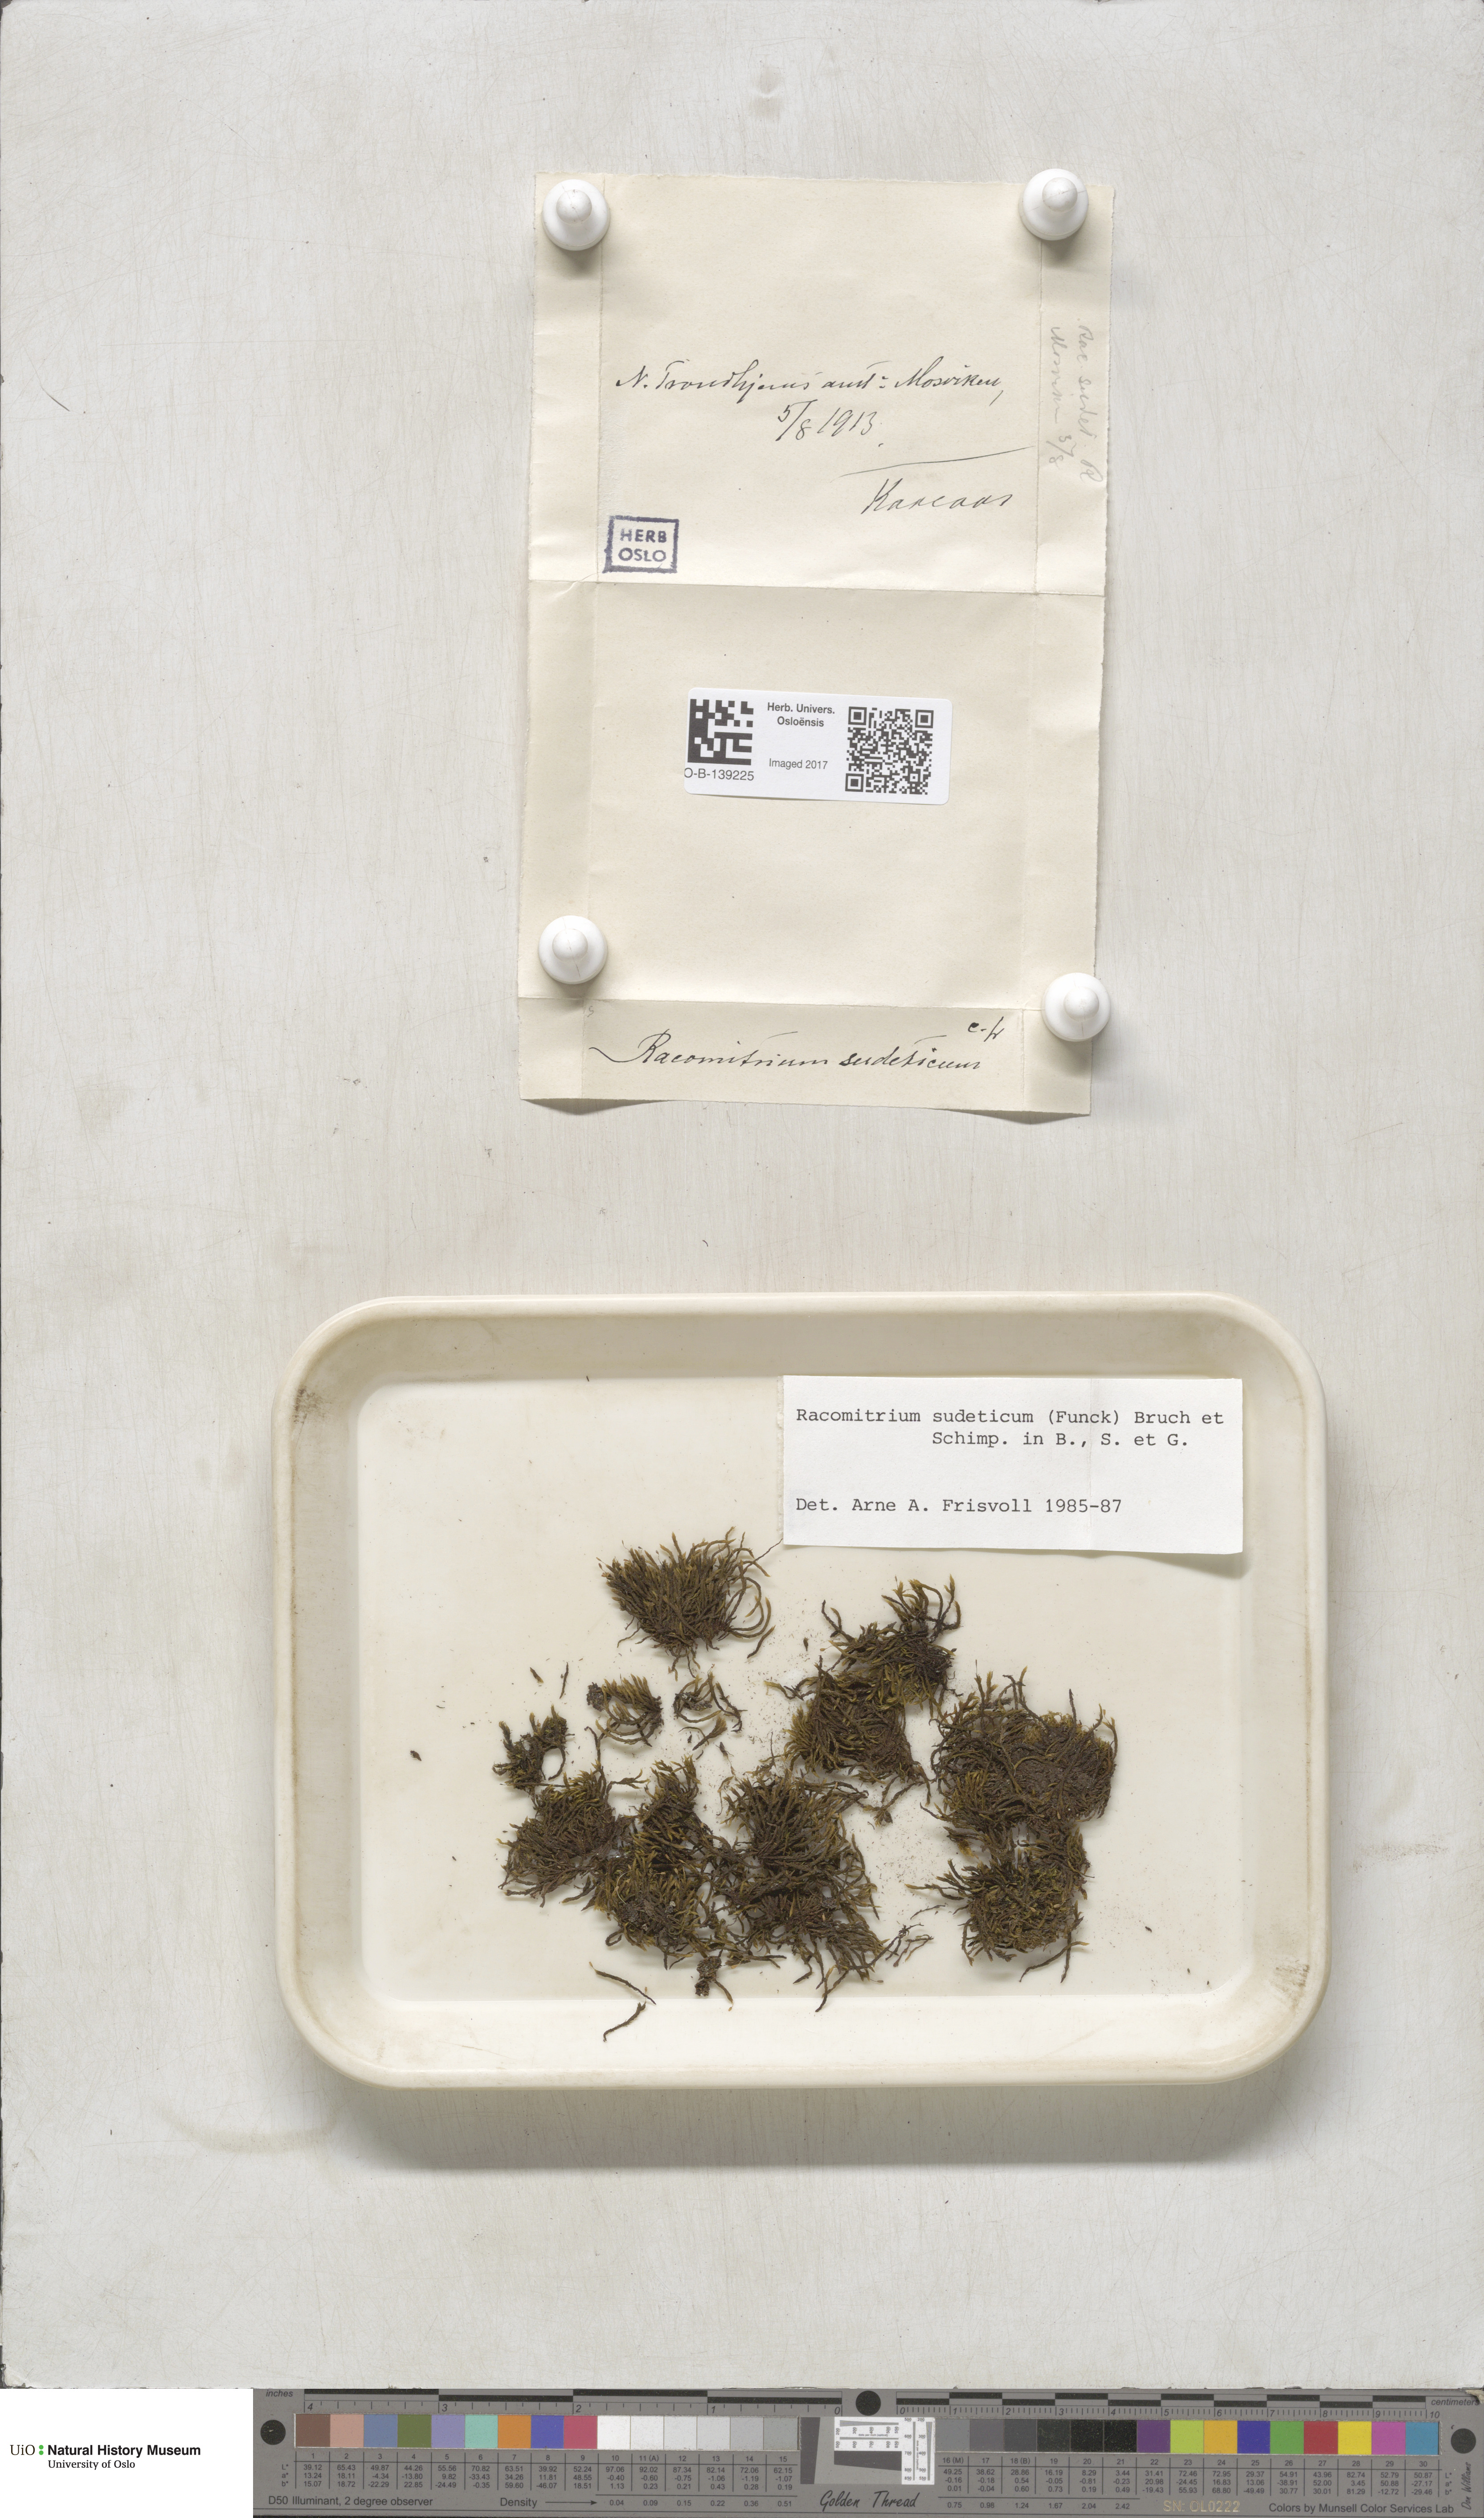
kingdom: Plantae
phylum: Bryophyta
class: Bryopsida
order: Grimmiales
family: Grimmiaceae
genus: Bucklandiella
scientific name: Bucklandiella sudetica
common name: Slender fringe-moss
